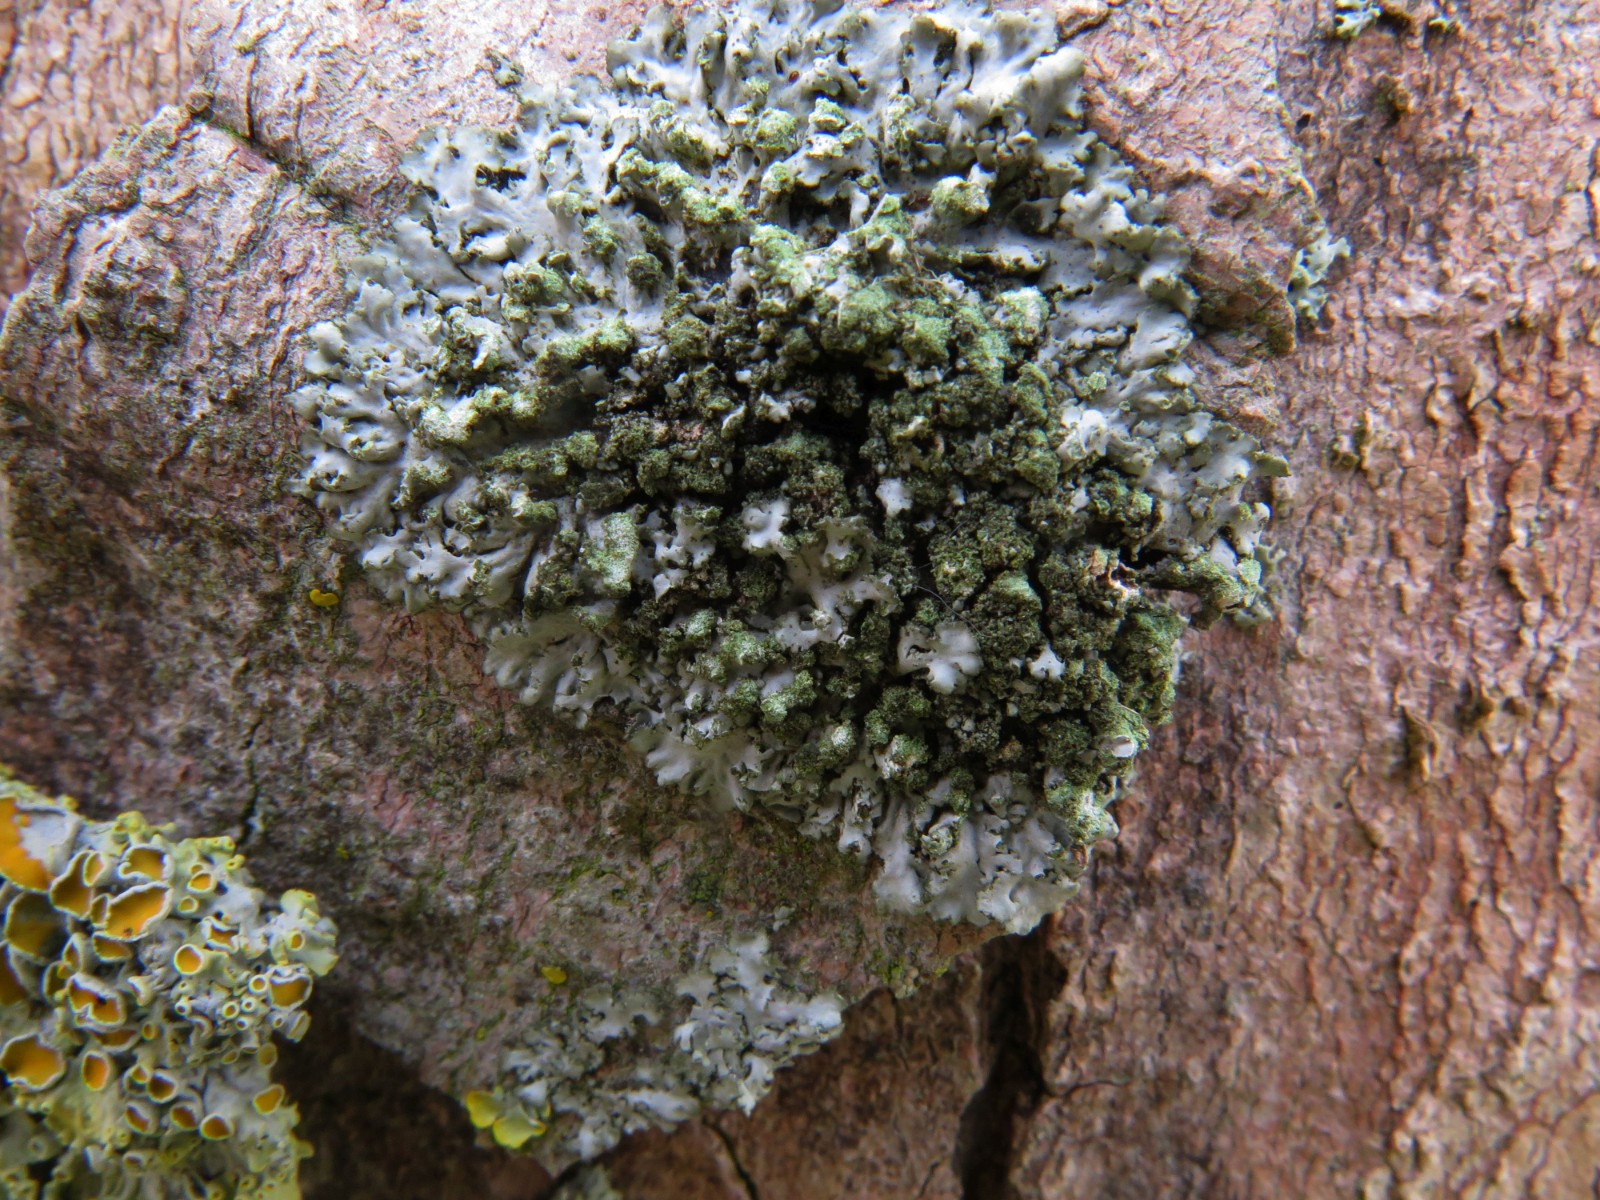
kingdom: Fungi
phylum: Ascomycota
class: Lecanoromycetes
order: Caliciales
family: Physciaceae
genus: Phaeophyscia
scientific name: Phaeophyscia orbicularis
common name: grågrøn rosetlav
